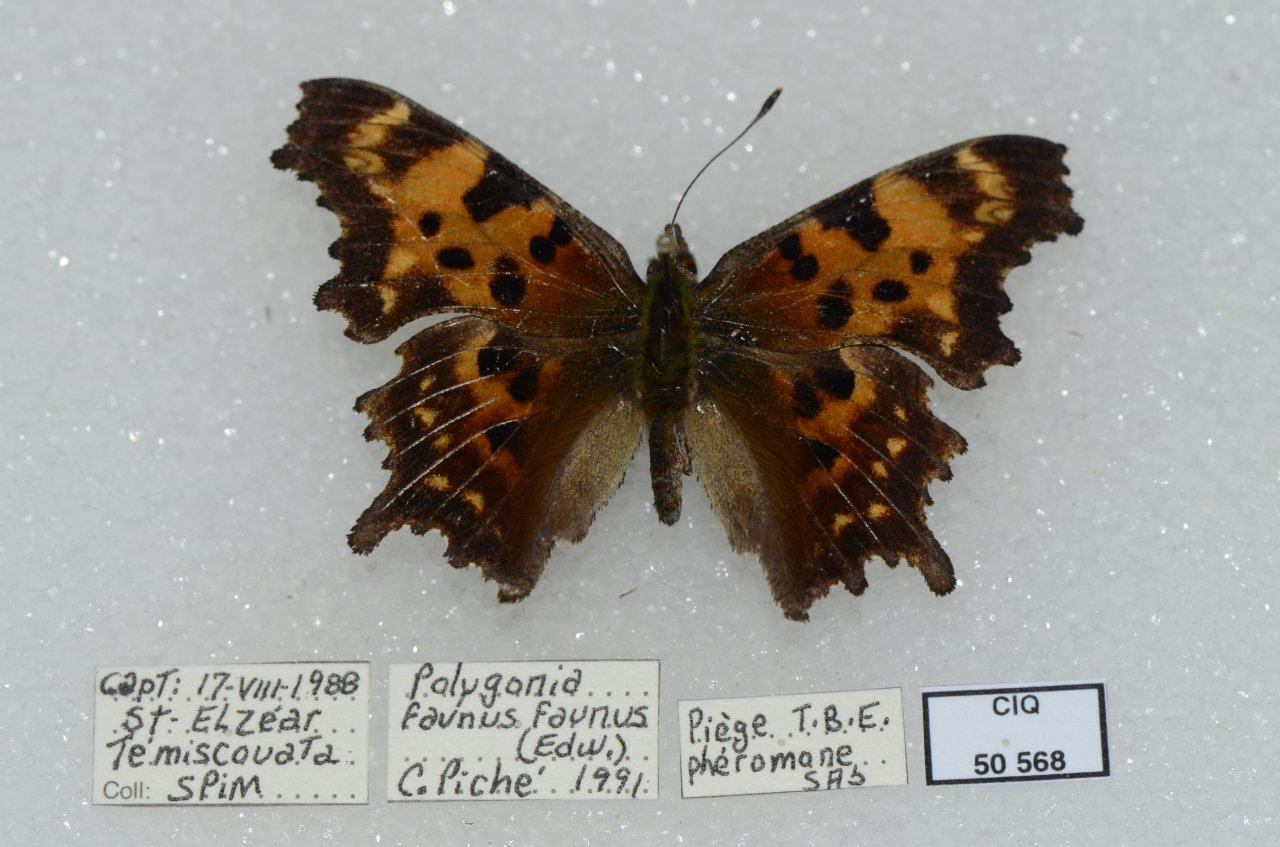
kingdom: Animalia
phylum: Arthropoda
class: Insecta
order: Lepidoptera
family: Nymphalidae
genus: Polygonia
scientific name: Polygonia faunus
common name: Green Comma
